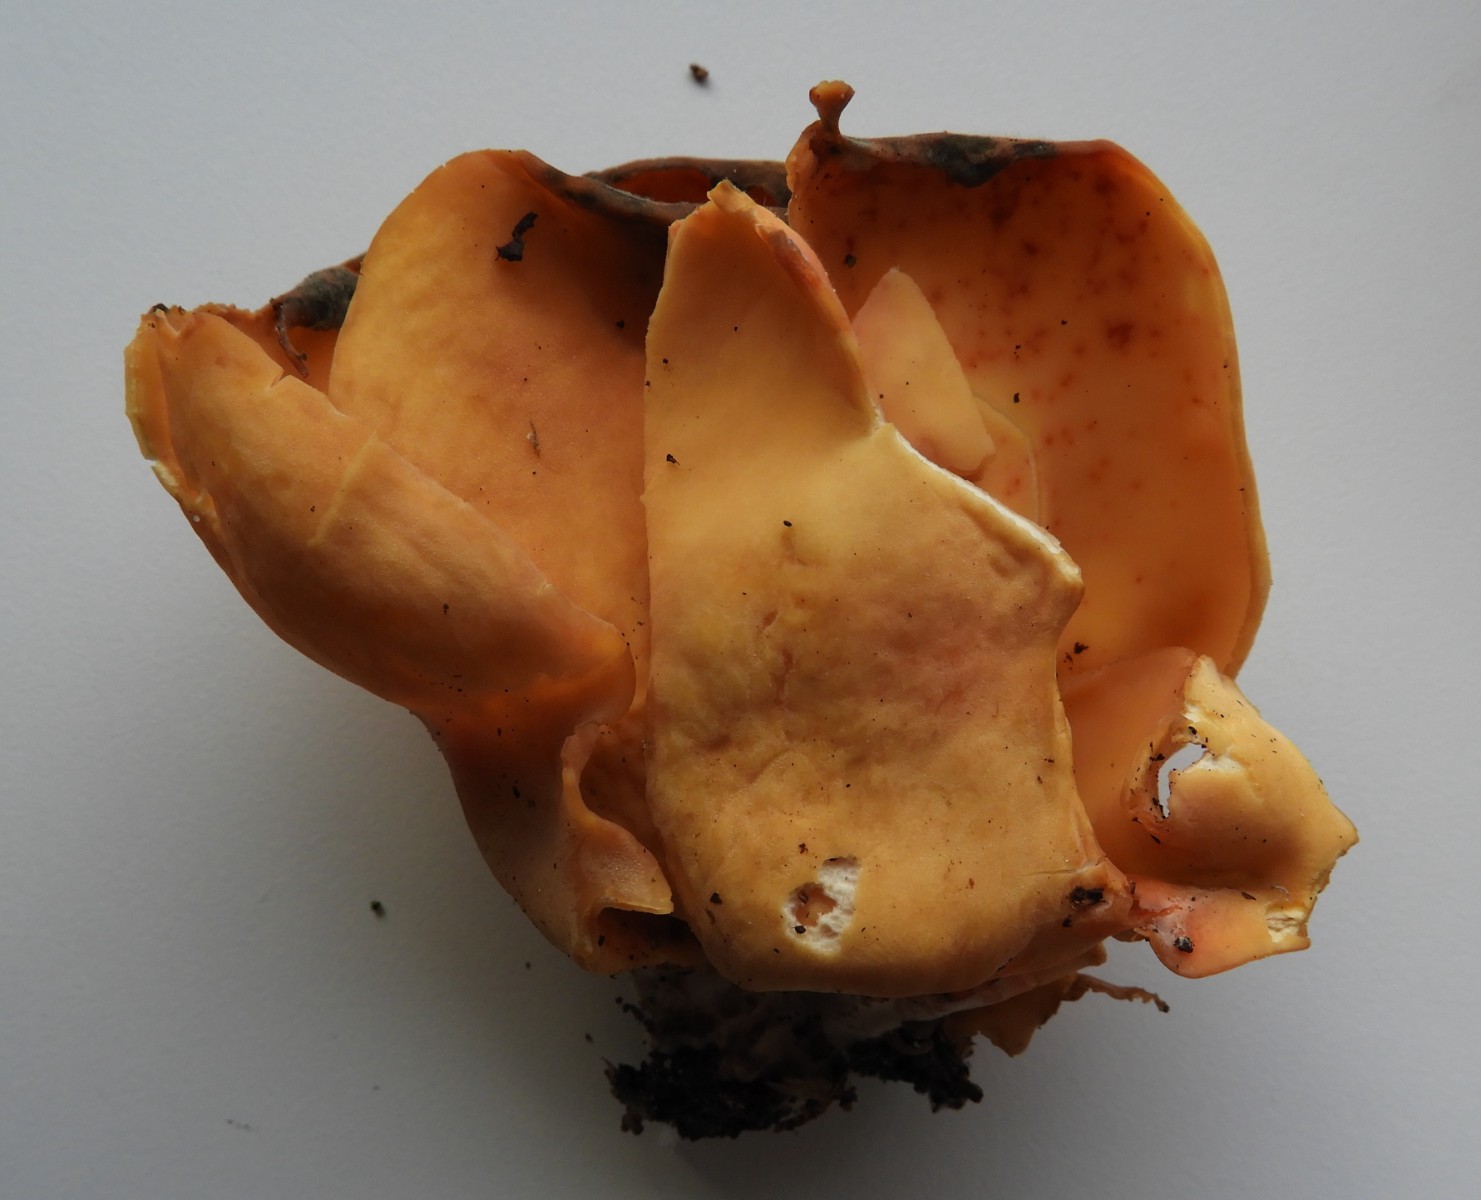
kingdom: Fungi
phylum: Ascomycota
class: Pezizomycetes
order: Pezizales
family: Otideaceae
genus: Otidea
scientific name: Otidea onotica
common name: æsel-ørebæger
